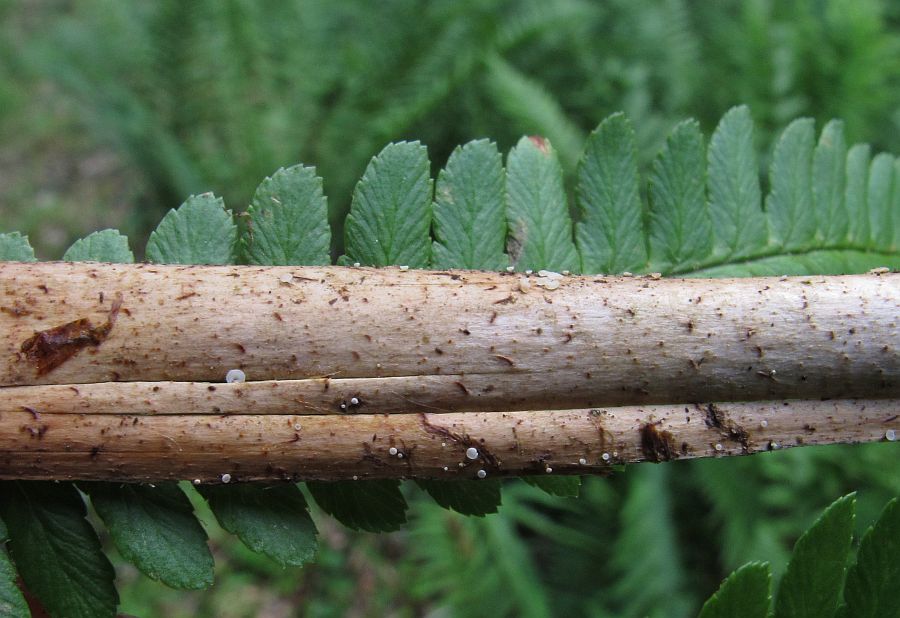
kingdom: Fungi
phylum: Ascomycota
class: Leotiomycetes
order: Helotiales
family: Pezizellaceae
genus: Psilachnum
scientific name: Psilachnum chrysostigmum
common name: gulnende hårskive
